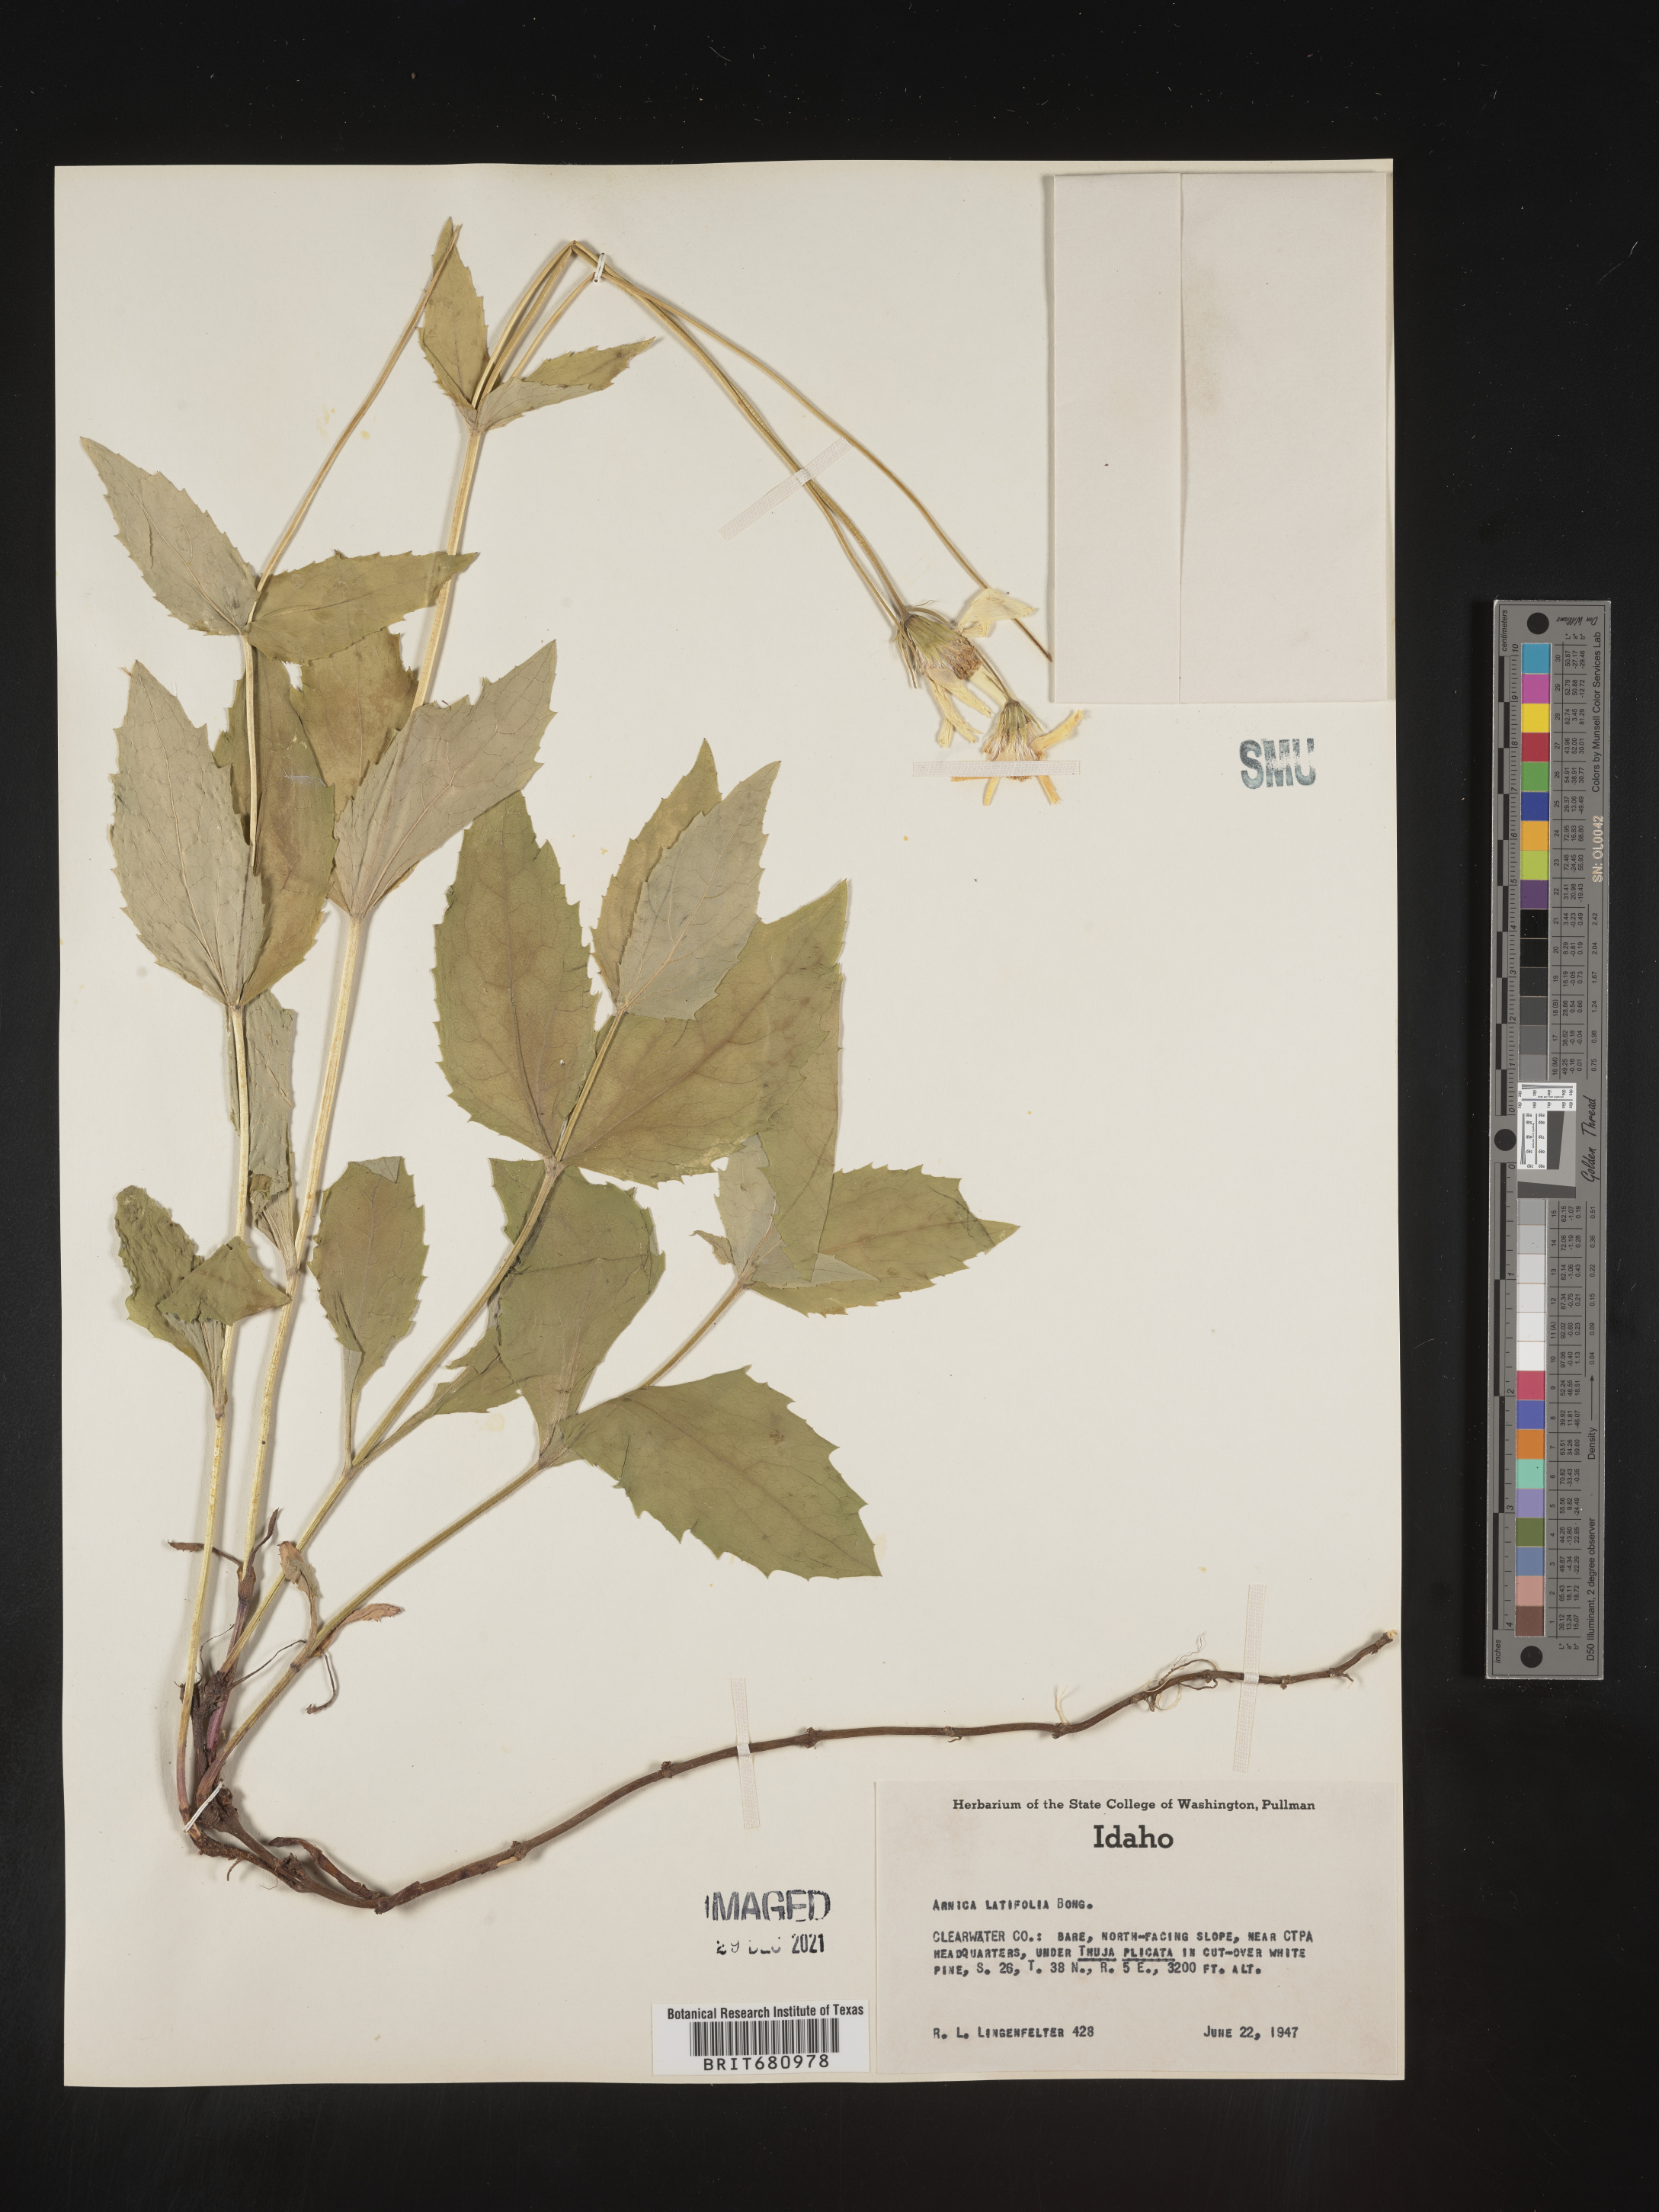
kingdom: Plantae
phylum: Tracheophyta
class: Magnoliopsida
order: Asterales
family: Asteraceae
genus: Arnica
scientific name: Arnica latifolia
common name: Arnica
